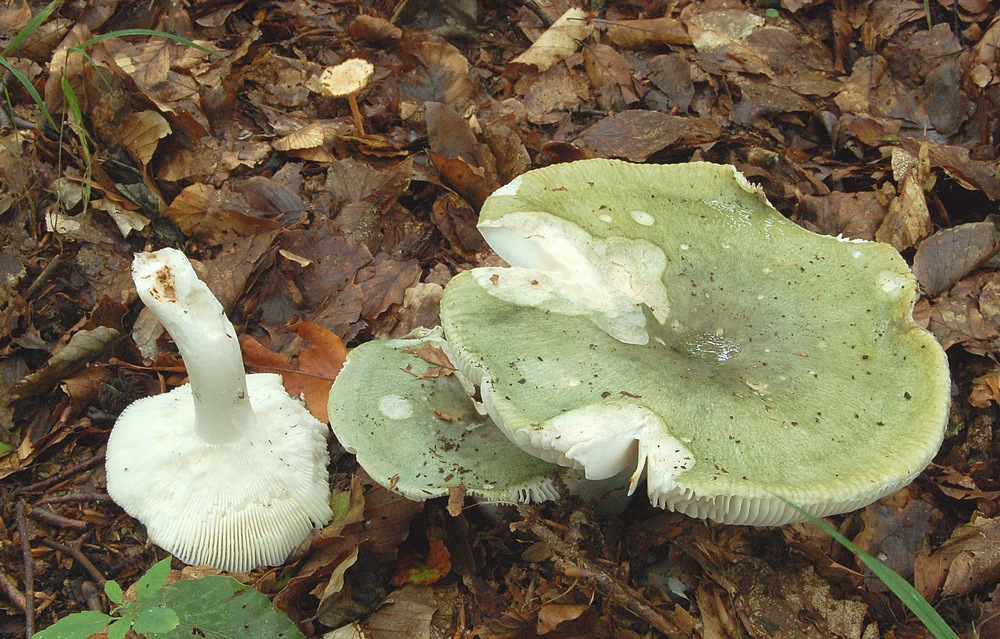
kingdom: Fungi
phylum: Basidiomycota
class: Agaricomycetes
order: Russulales
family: Russulaceae
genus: Russula
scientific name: Russula virescens
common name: spanskgrøn skørhat
